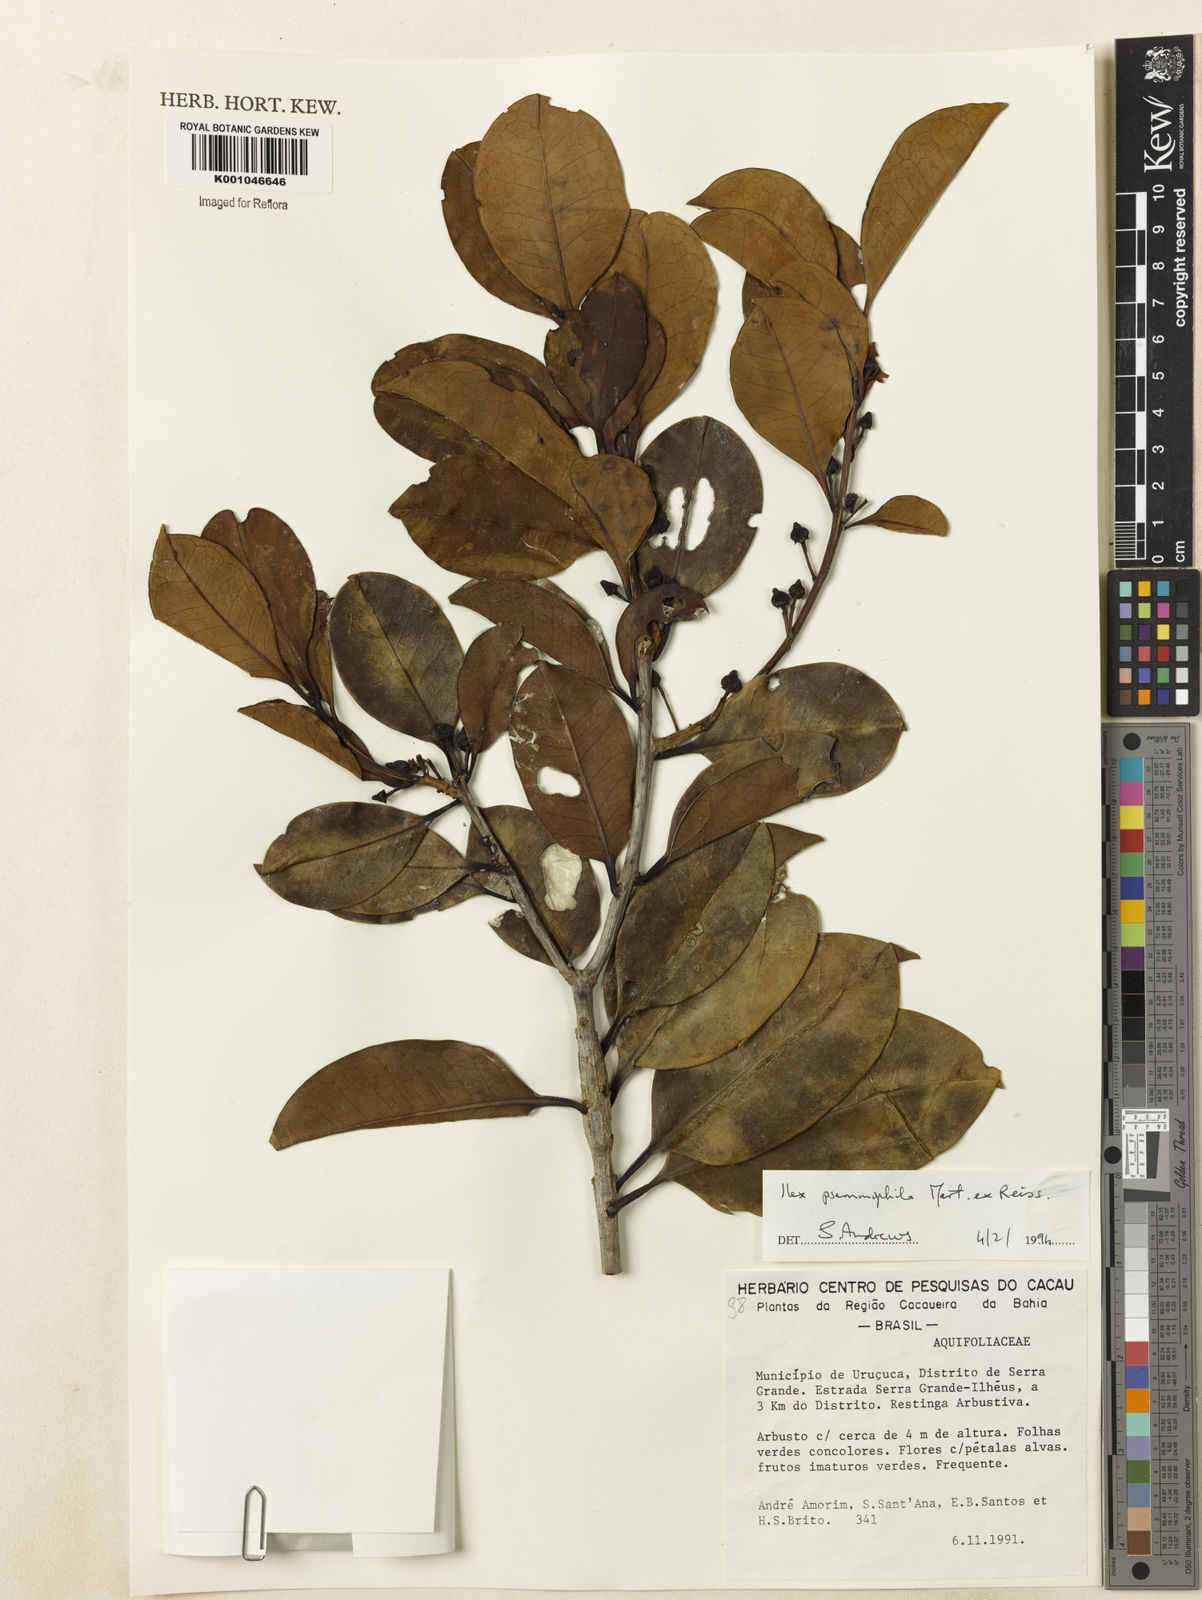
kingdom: Plantae
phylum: Tracheophyta
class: Magnoliopsida
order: Aquifoliales
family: Aquifoliaceae
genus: Ilex
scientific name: Ilex psammophila
